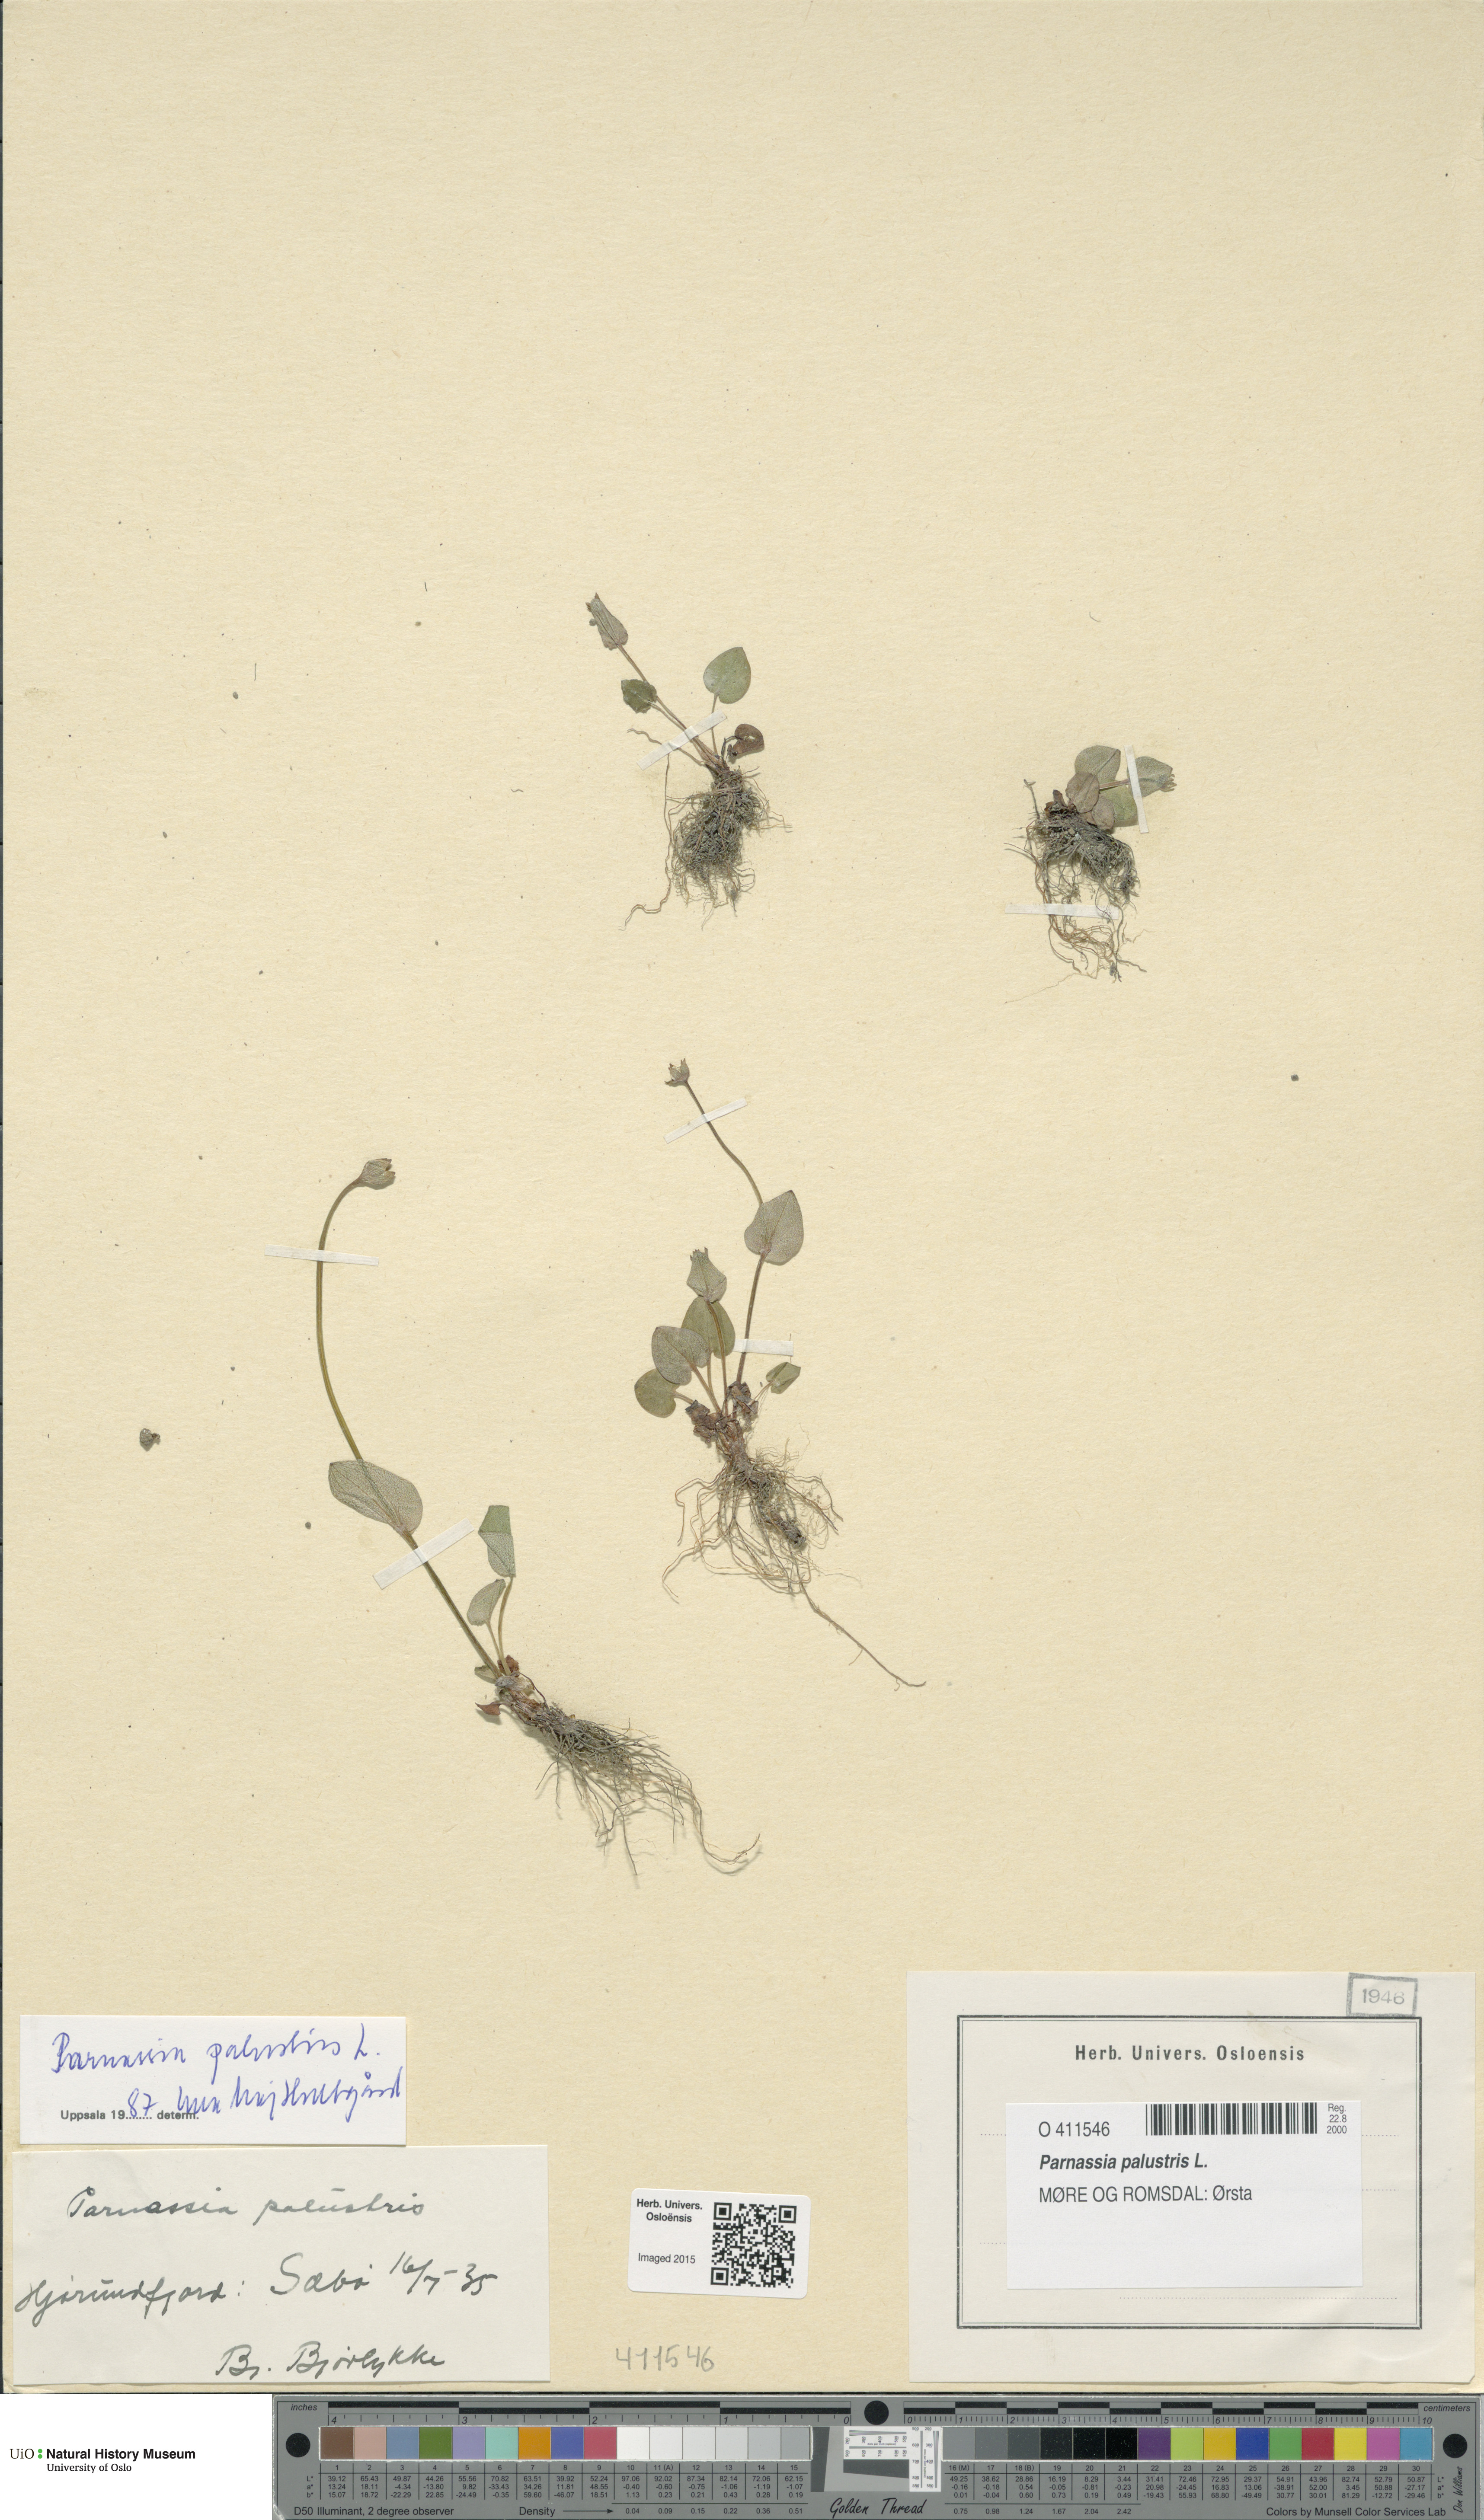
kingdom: Plantae
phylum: Tracheophyta
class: Magnoliopsida
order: Celastrales
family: Parnassiaceae
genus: Parnassia
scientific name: Parnassia palustris
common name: Grass-of-parnassus
